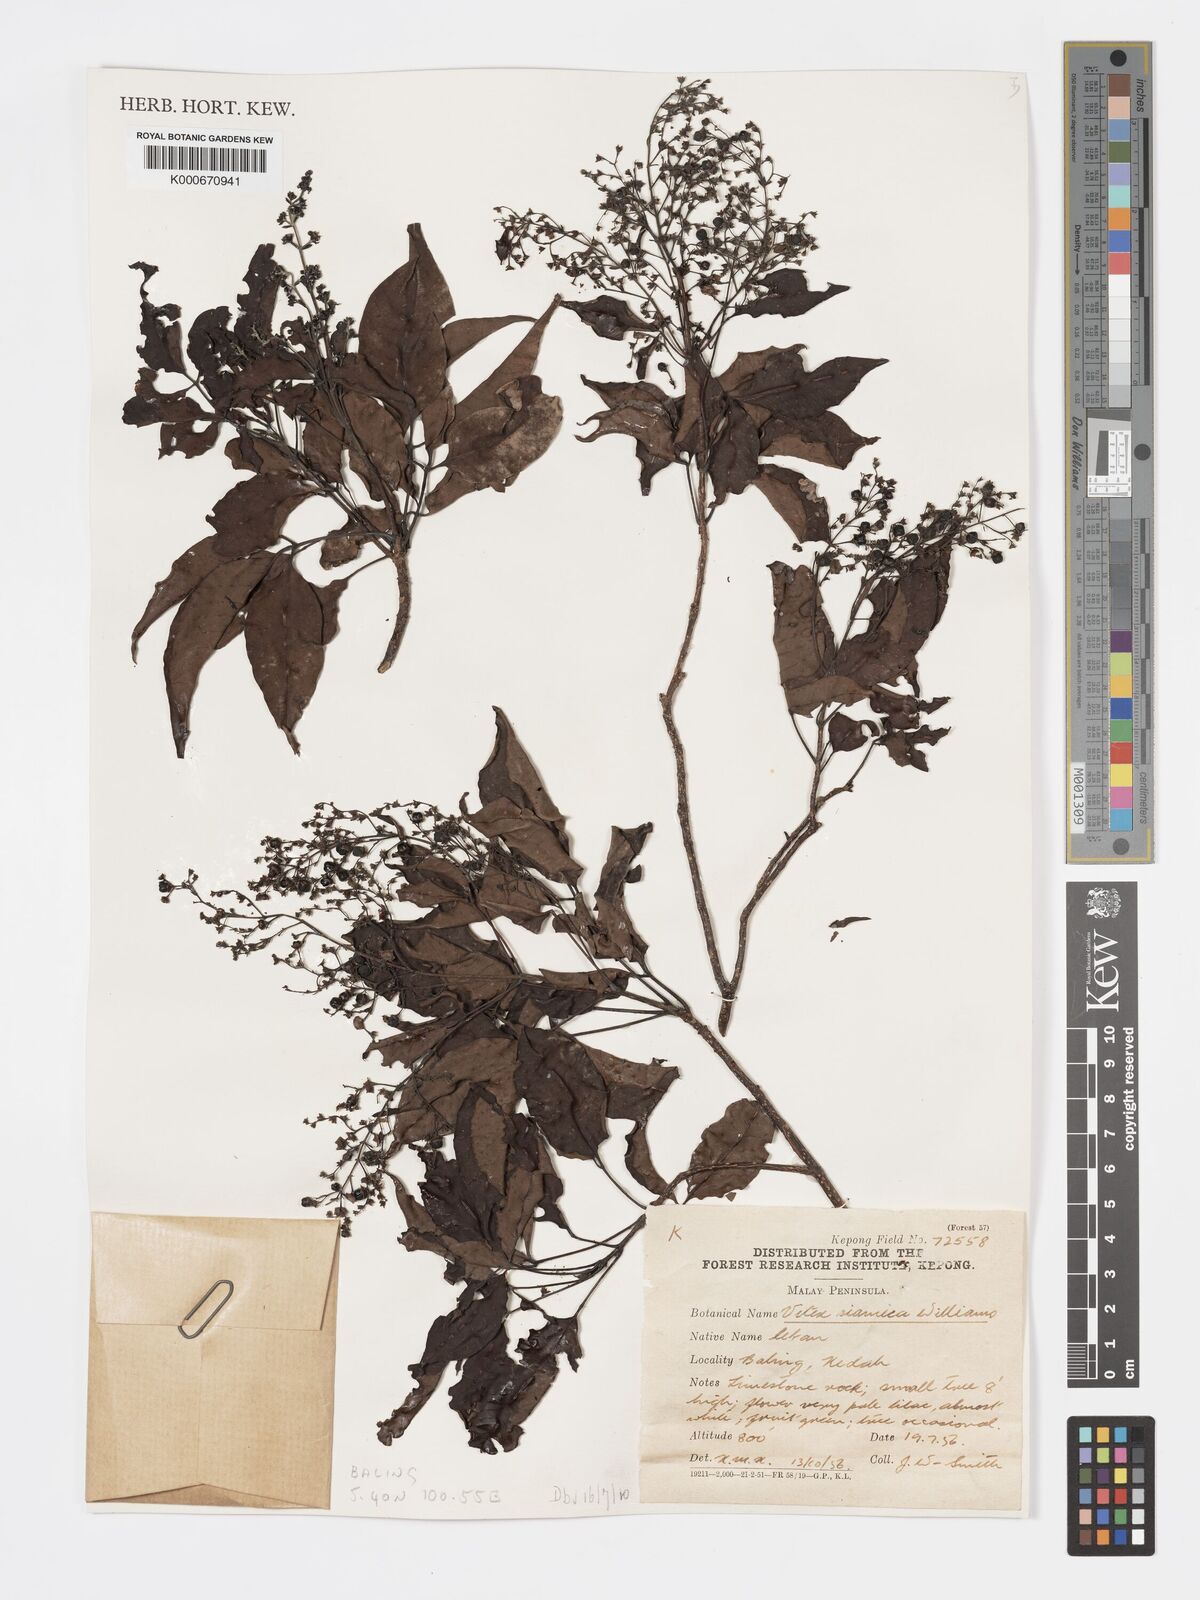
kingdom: Plantae
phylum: Tracheophyta
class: Magnoliopsida
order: Lamiales
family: Lamiaceae
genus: Vitex
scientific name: Vitex siamica
